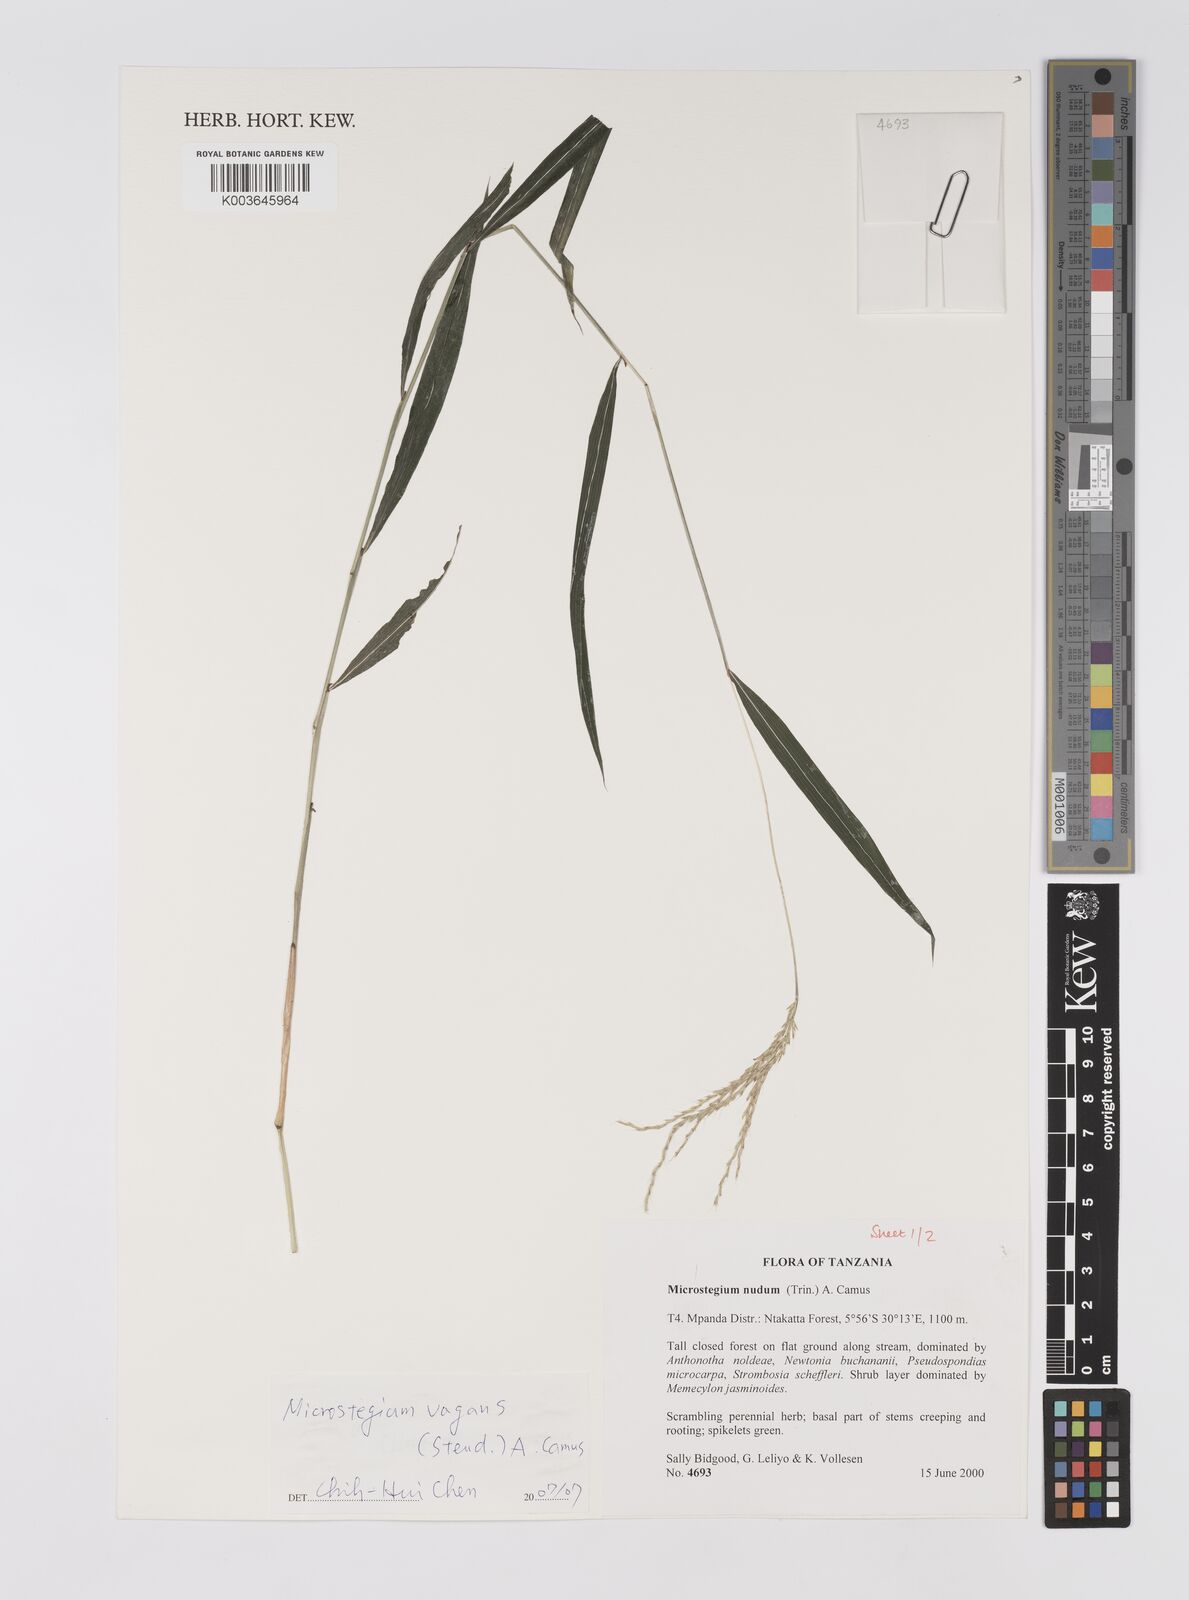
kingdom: Plantae
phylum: Tracheophyta
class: Liliopsida
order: Poales
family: Poaceae
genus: Microstegium
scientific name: Microstegium fasciculatum
